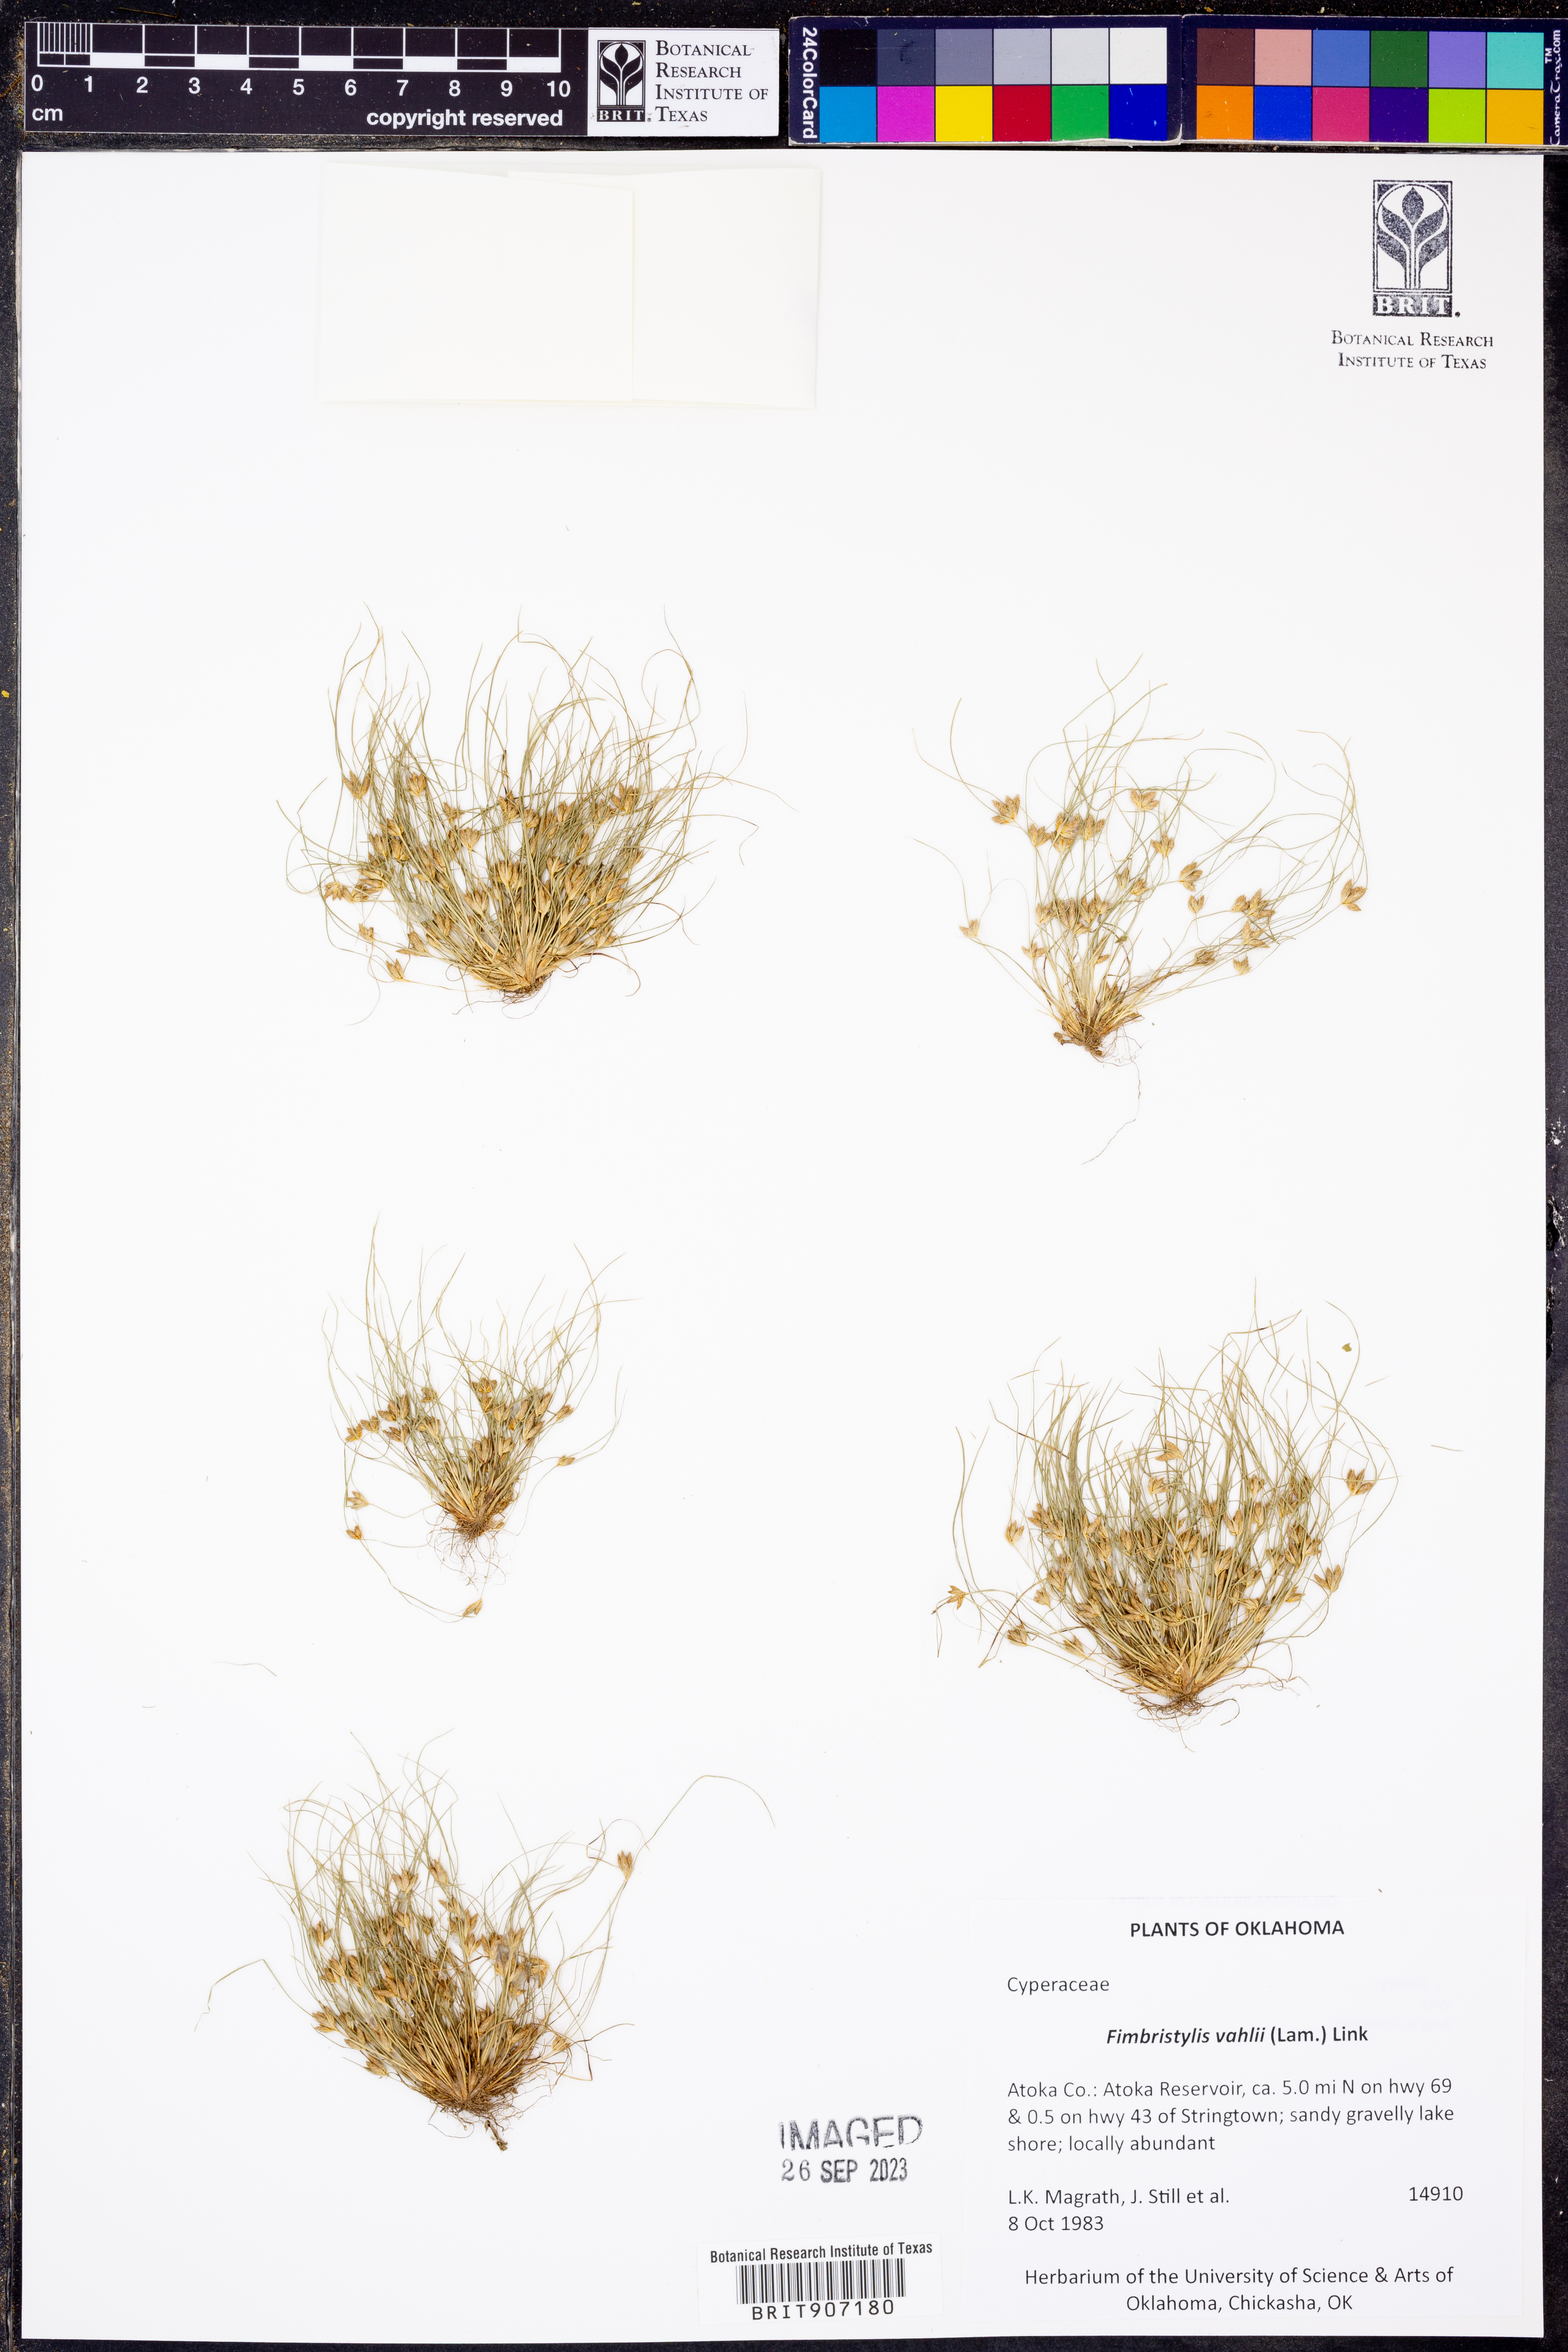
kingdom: Plantae
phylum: Tracheophyta
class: Liliopsida
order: Poales
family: Cyperaceae
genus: Fimbristylis
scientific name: Fimbristylis vahlii
